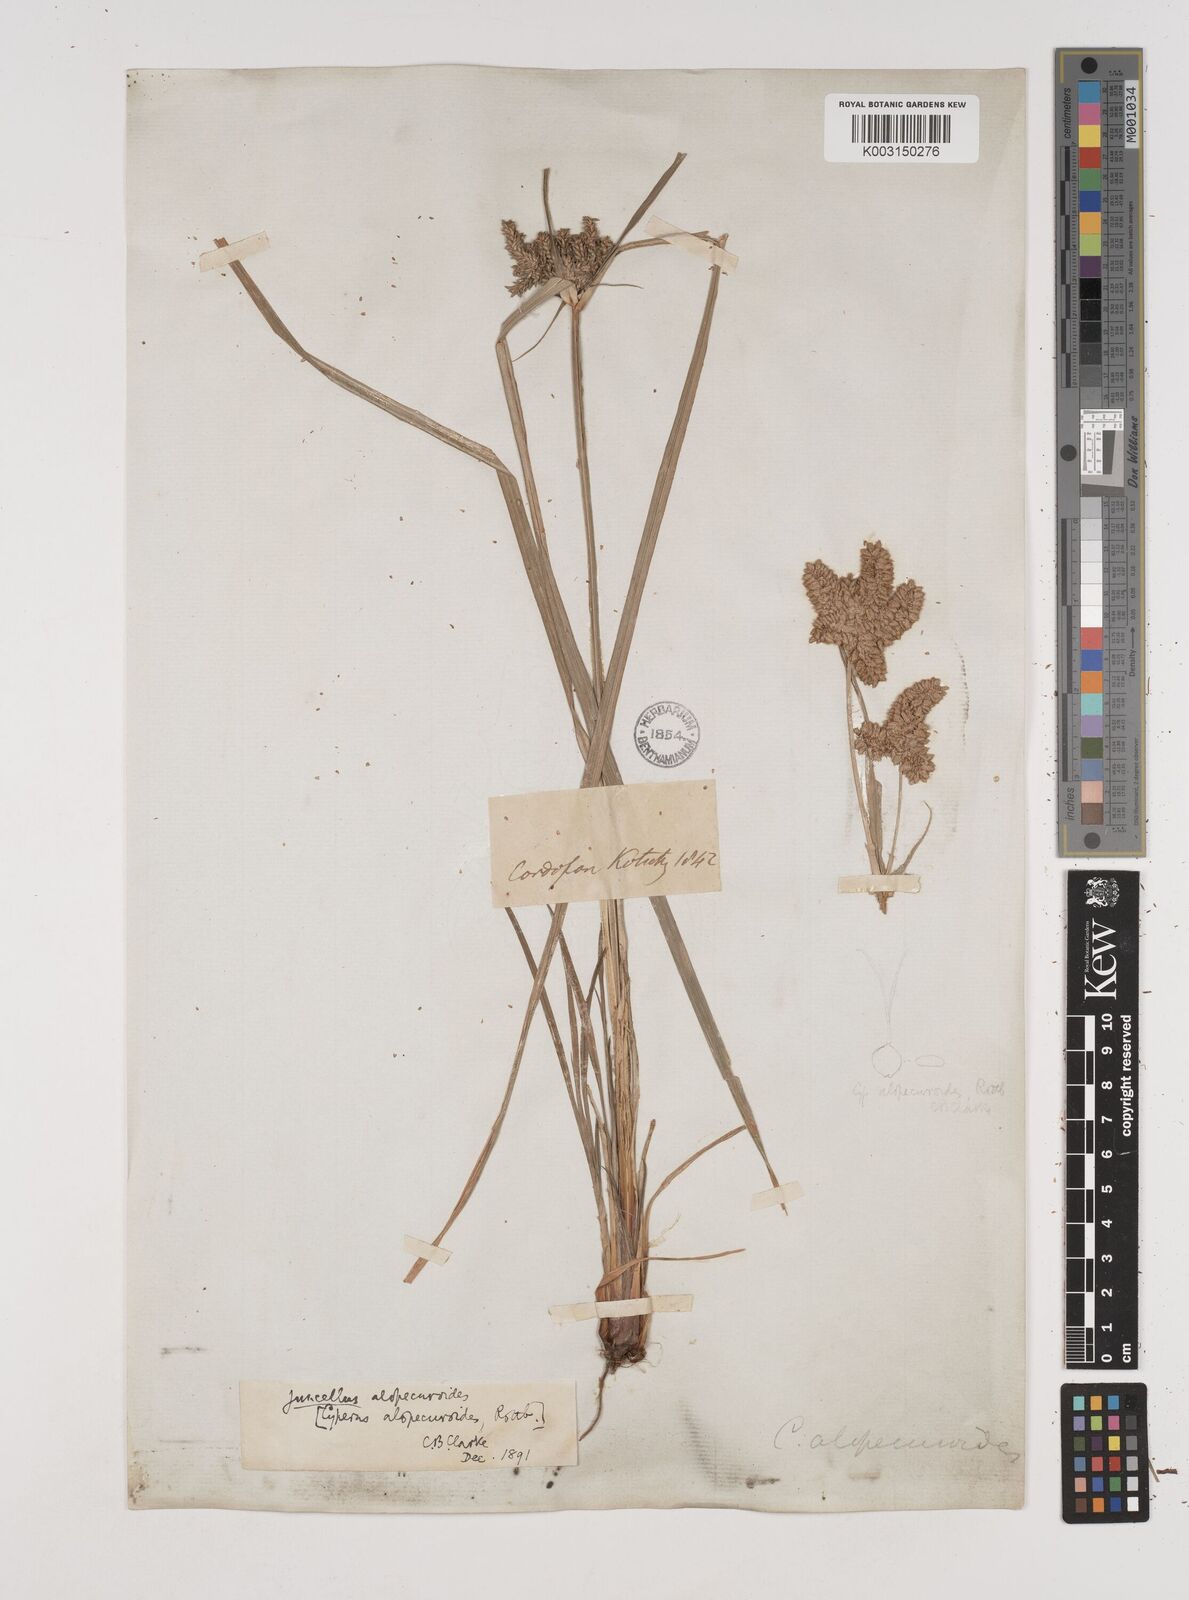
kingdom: Plantae
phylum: Tracheophyta
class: Liliopsida
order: Poales
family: Cyperaceae
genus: Cyperus
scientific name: Cyperus alopecuroides
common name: Foxtail flatsedge
